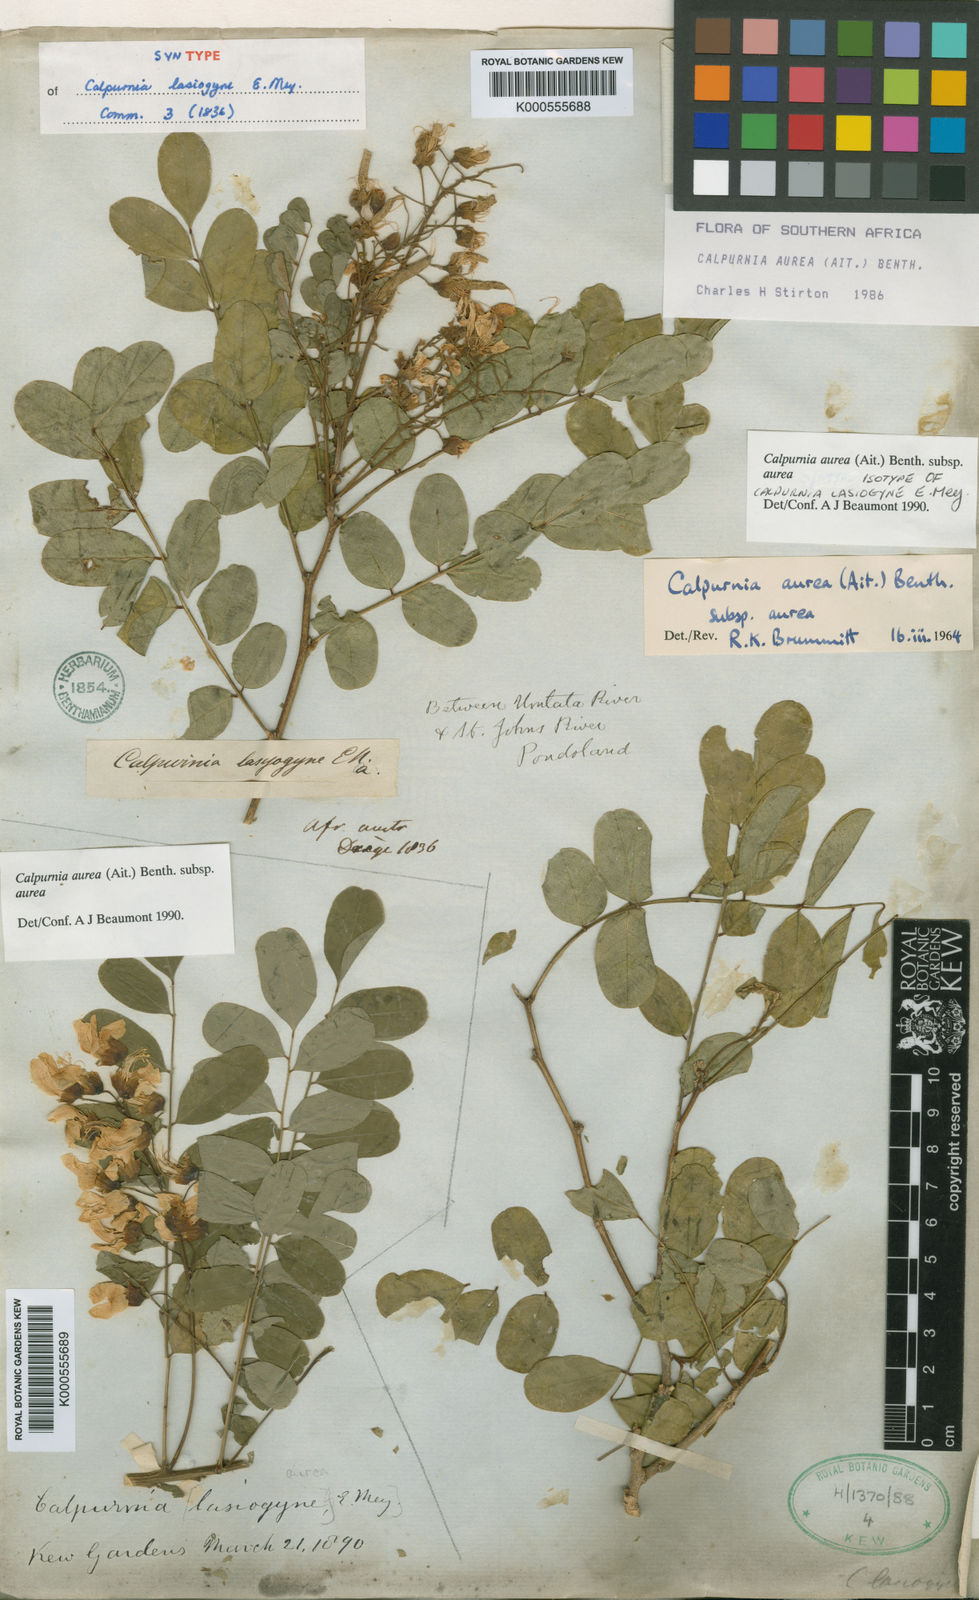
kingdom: Plantae
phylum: Tracheophyta
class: Magnoliopsida
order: Fabales
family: Fabaceae
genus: Calpurnia
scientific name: Calpurnia aurea
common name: Wild laburnum
